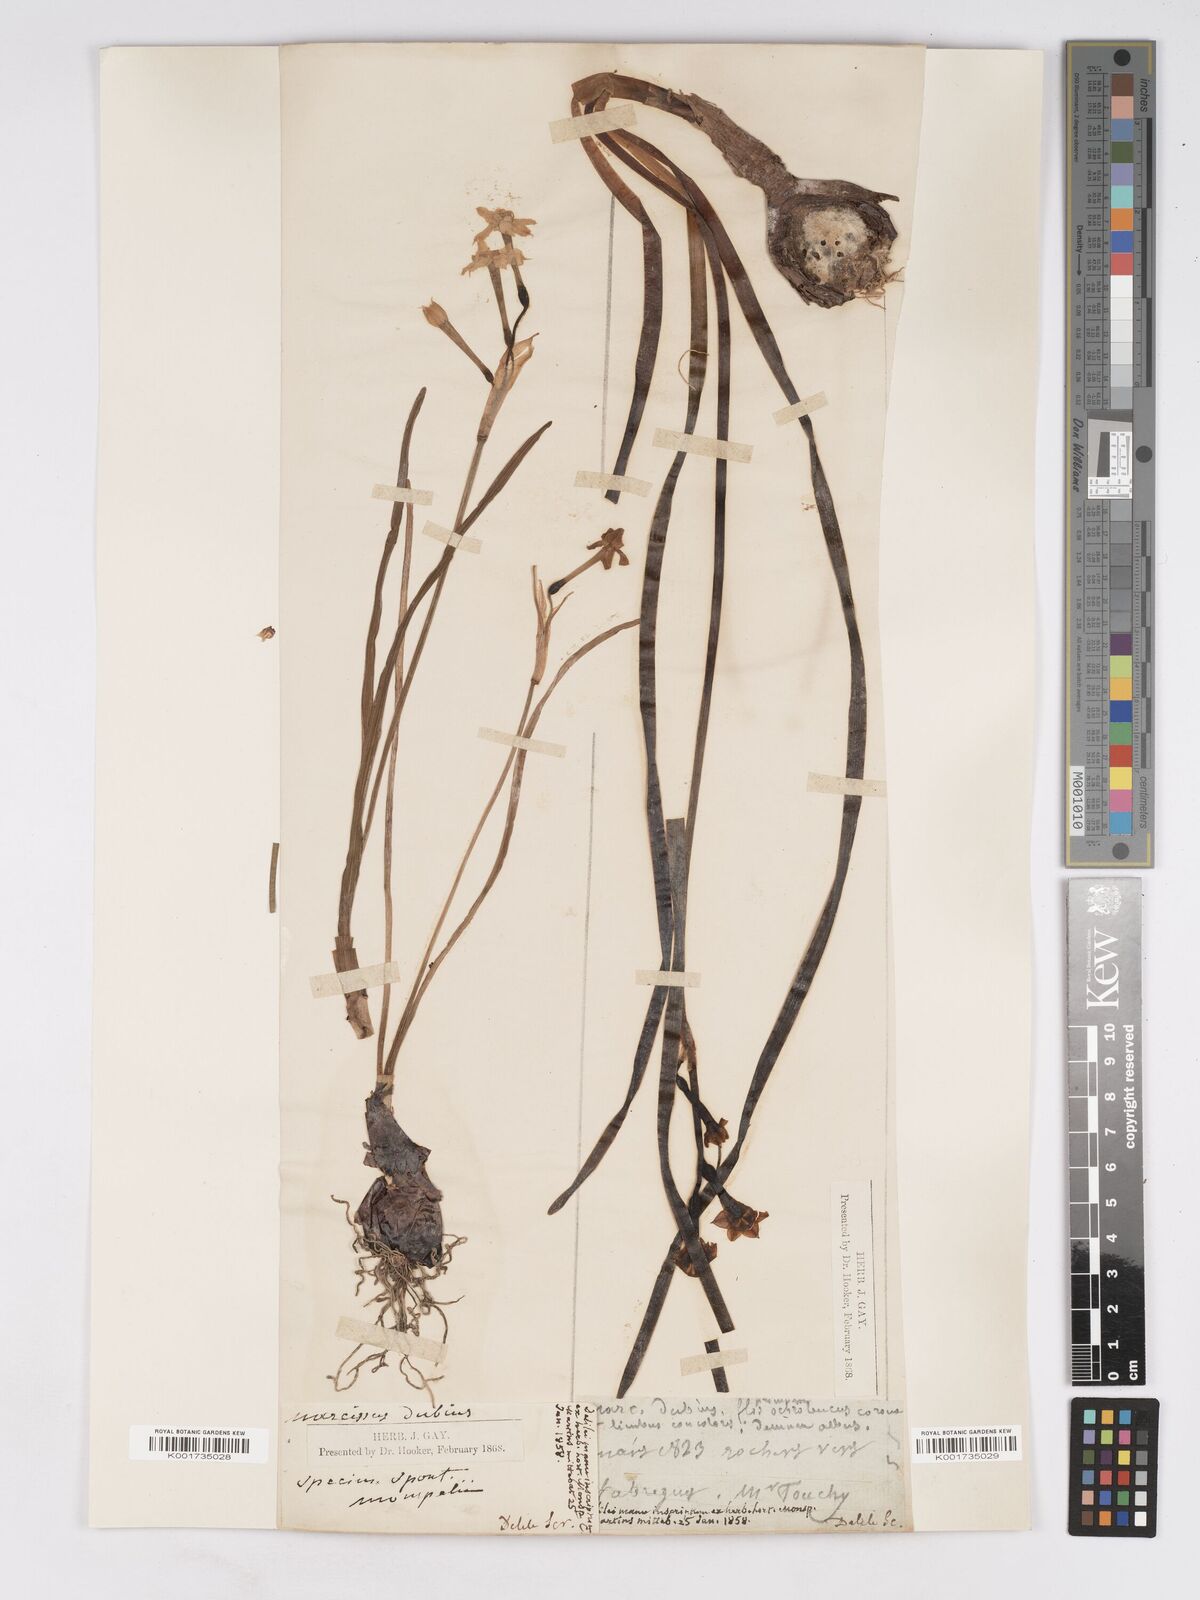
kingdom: Plantae
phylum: Tracheophyta
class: Liliopsida
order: Asparagales
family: Amaryllidaceae
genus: Narcissus
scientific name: Narcissus dubius
